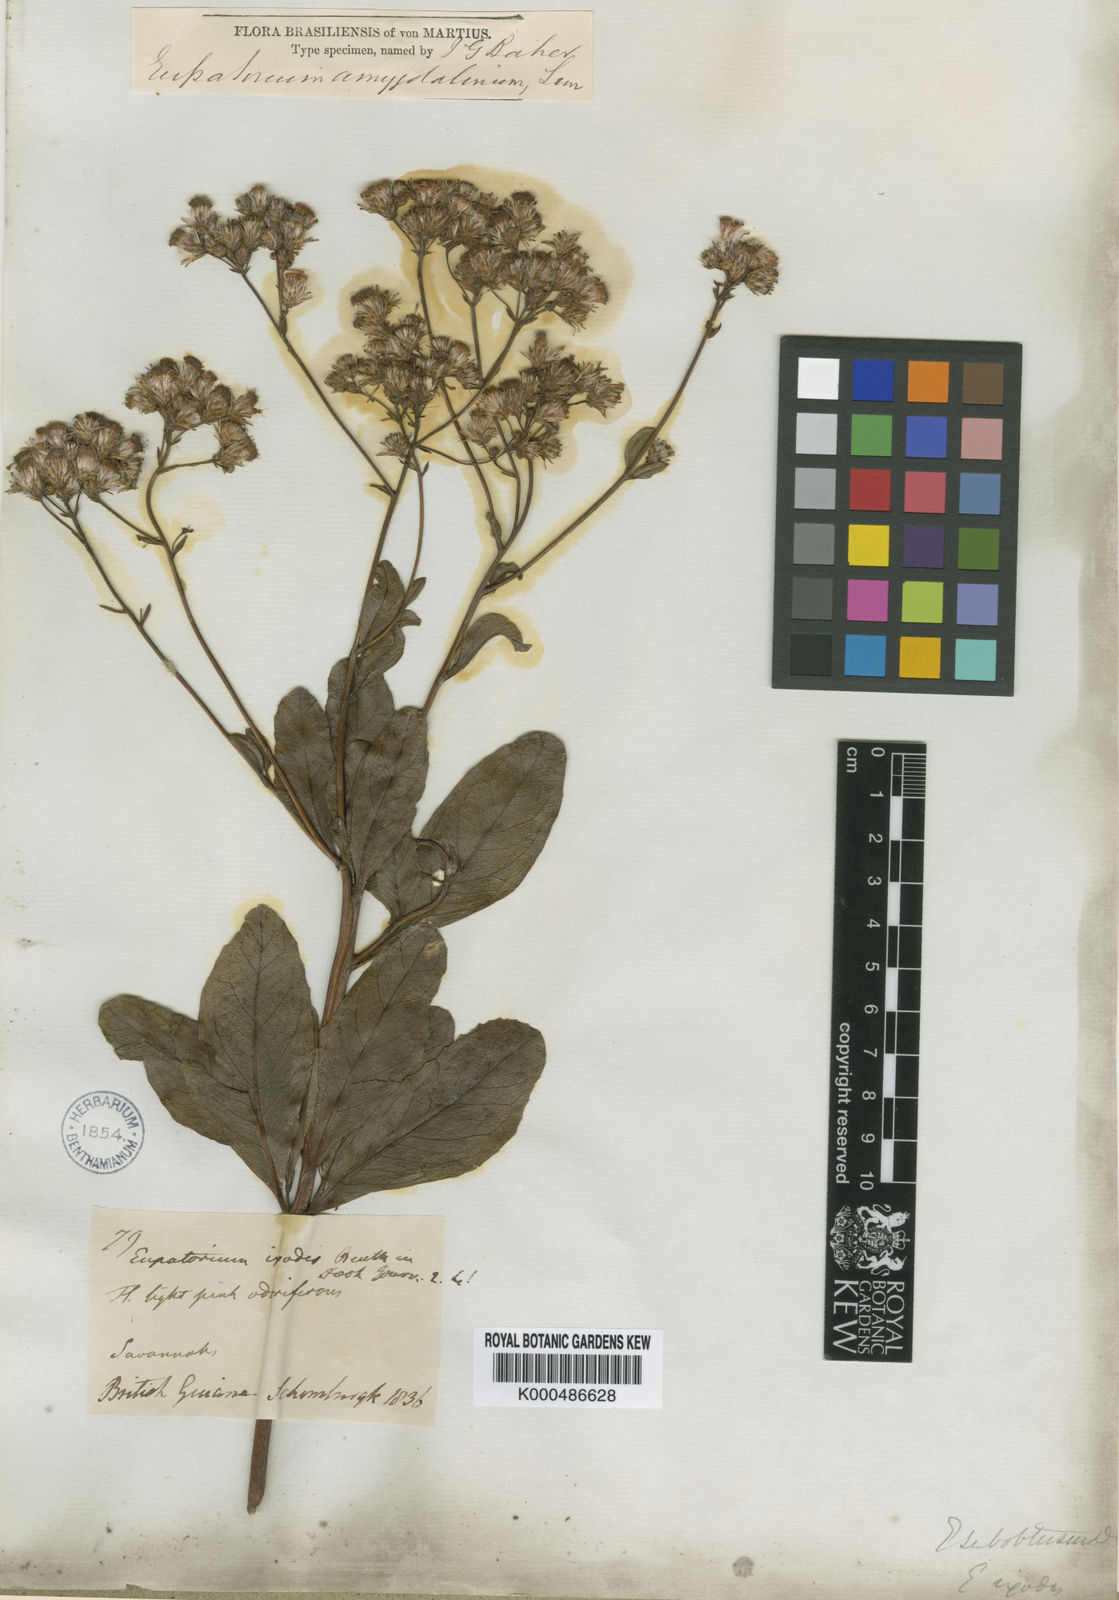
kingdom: Plantae
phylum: Tracheophyta
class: Magnoliopsida
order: Asterales
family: Asteraceae
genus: Ayapana
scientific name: Ayapana amygdalina
